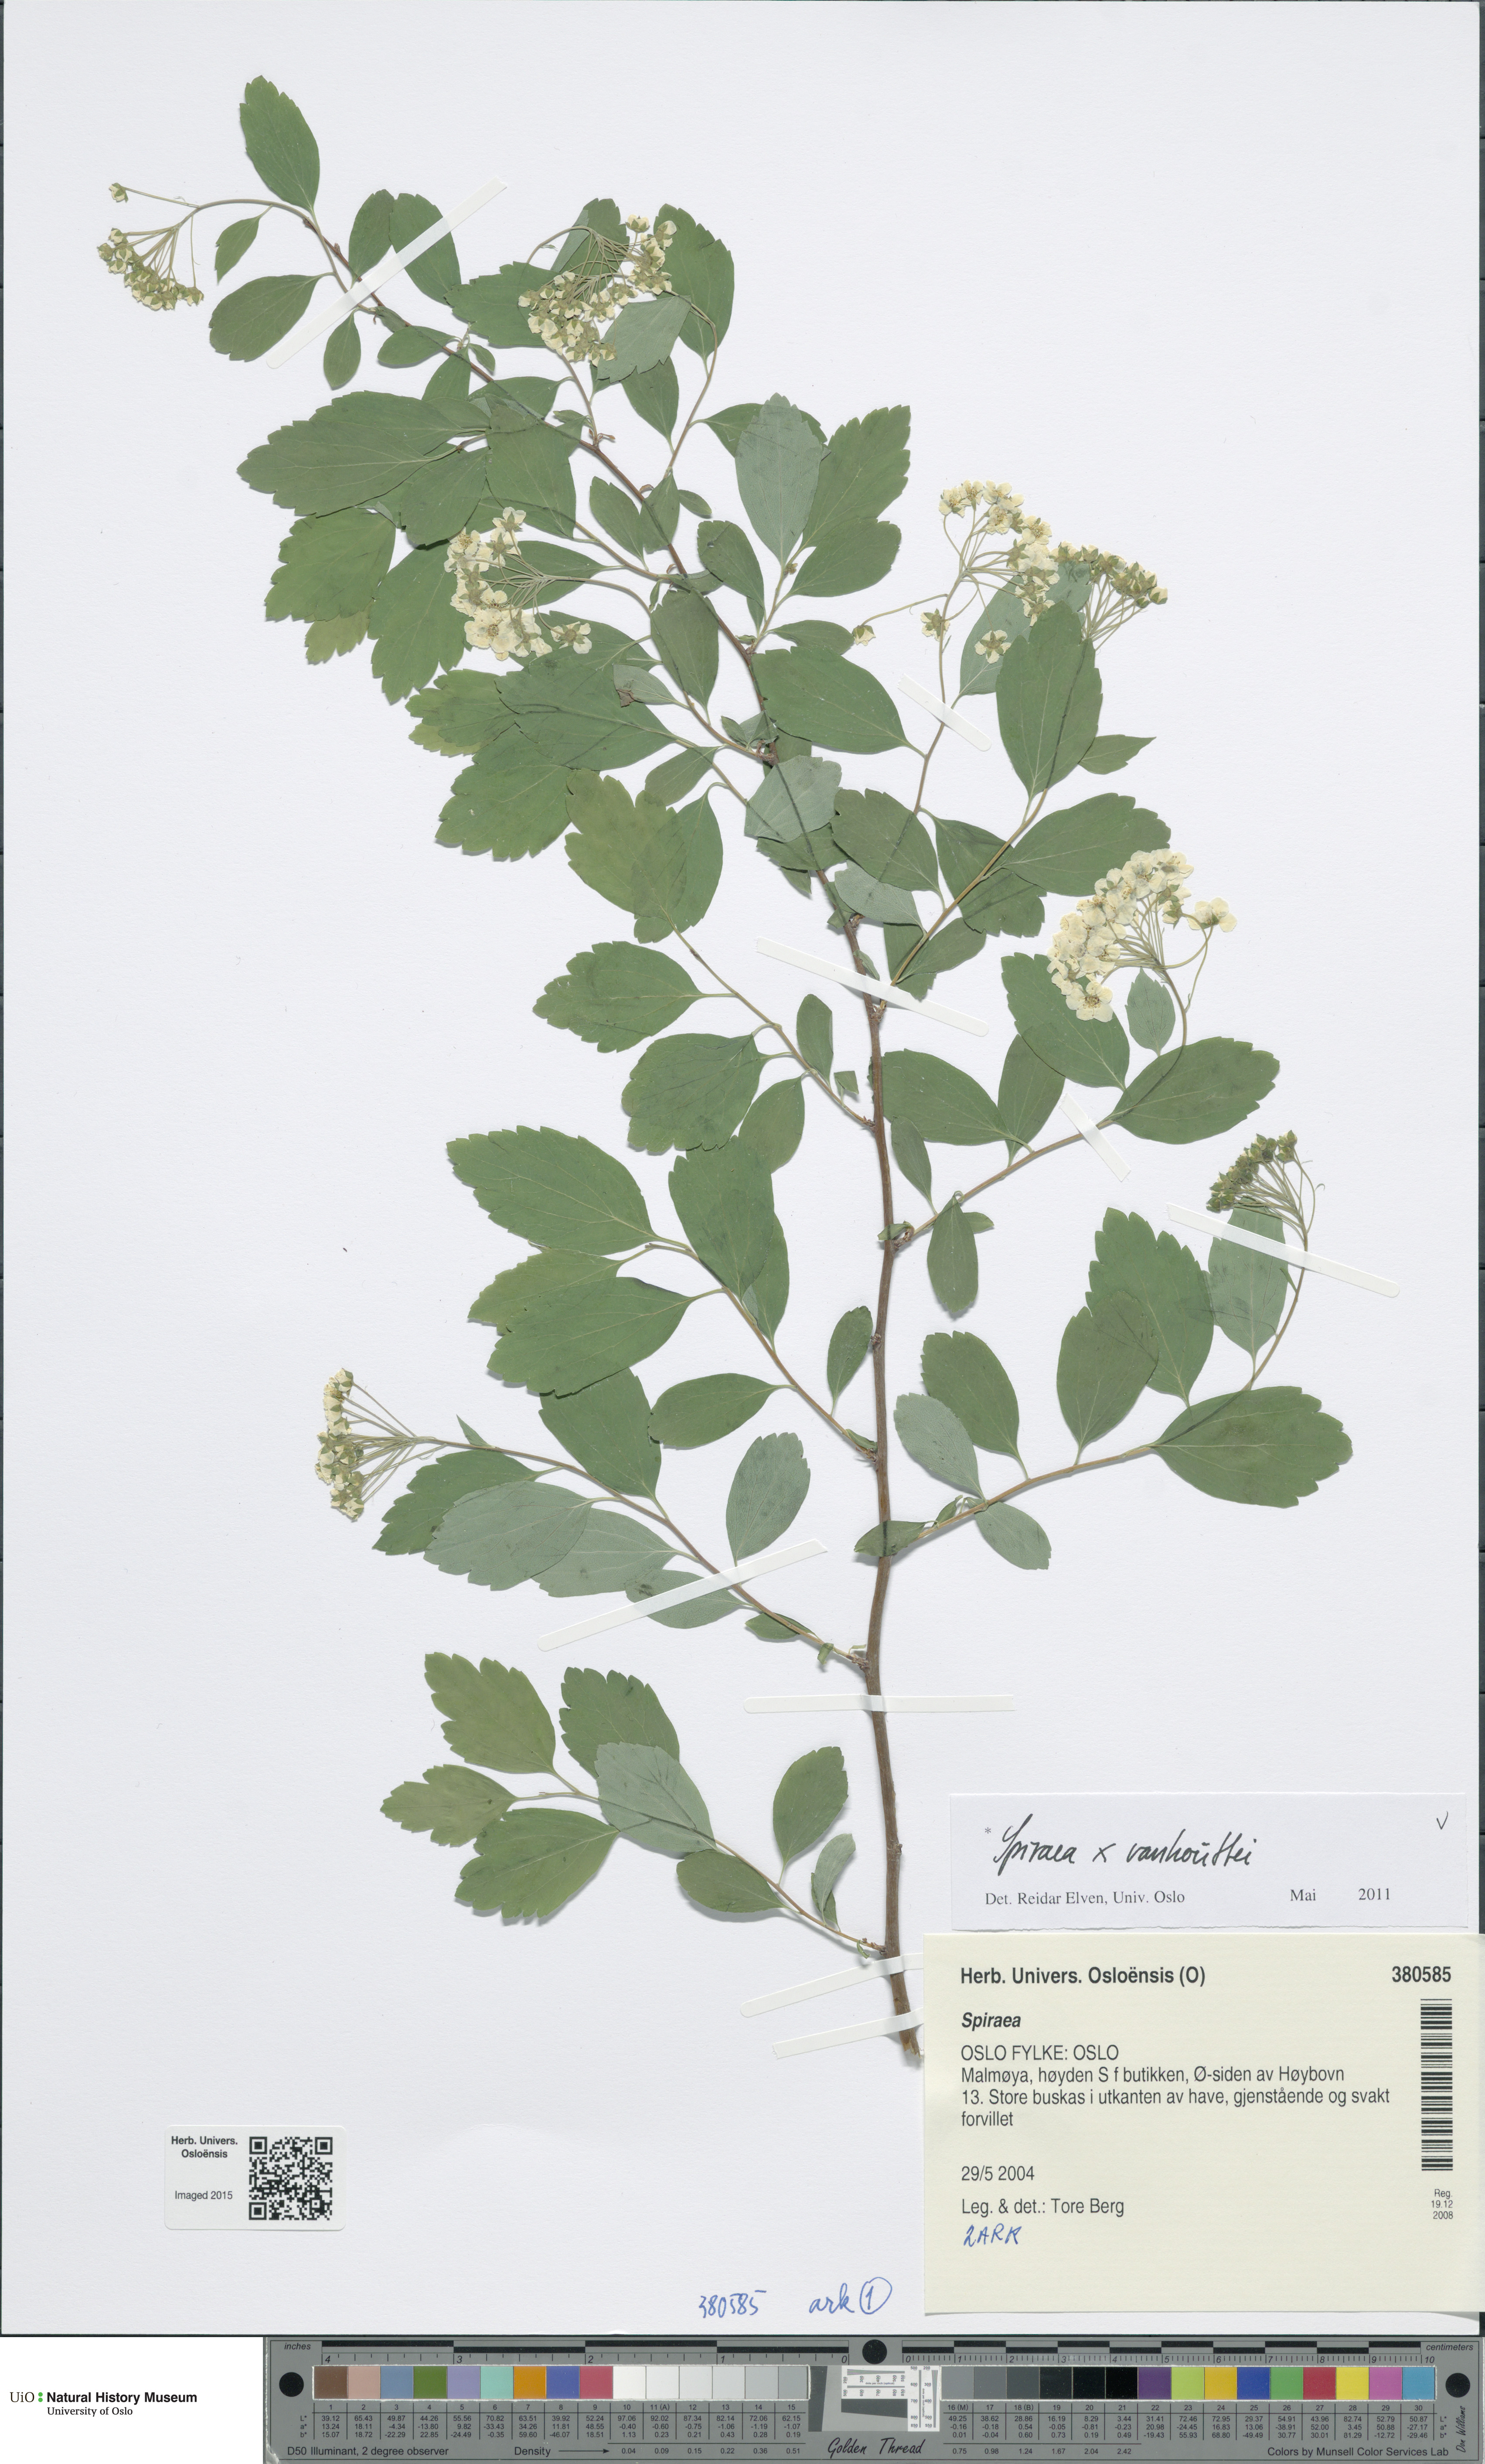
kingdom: Plantae
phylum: Tracheophyta
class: Magnoliopsida
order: Rosales
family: Rosaceae
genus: Spiraea
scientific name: Spiraea vanhouttei
